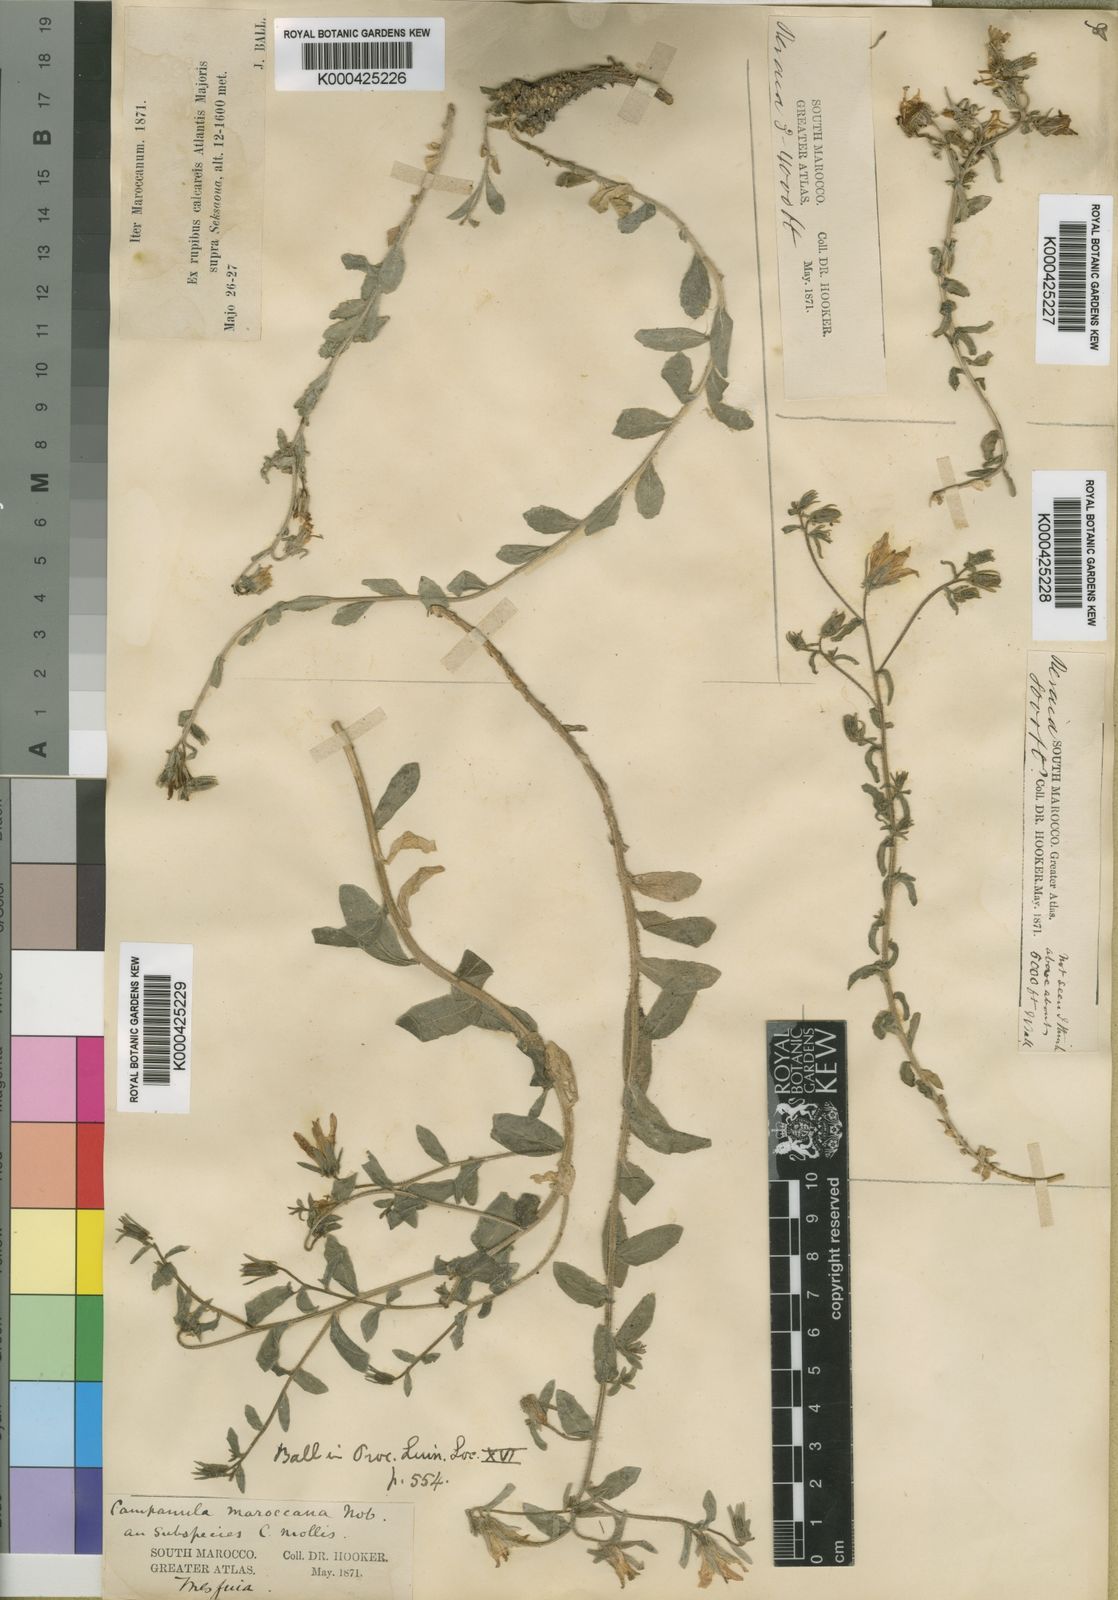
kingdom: Plantae
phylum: Tracheophyta
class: Magnoliopsida
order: Asterales
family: Campanulaceae
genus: Campanula
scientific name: Campanula filicaulis
